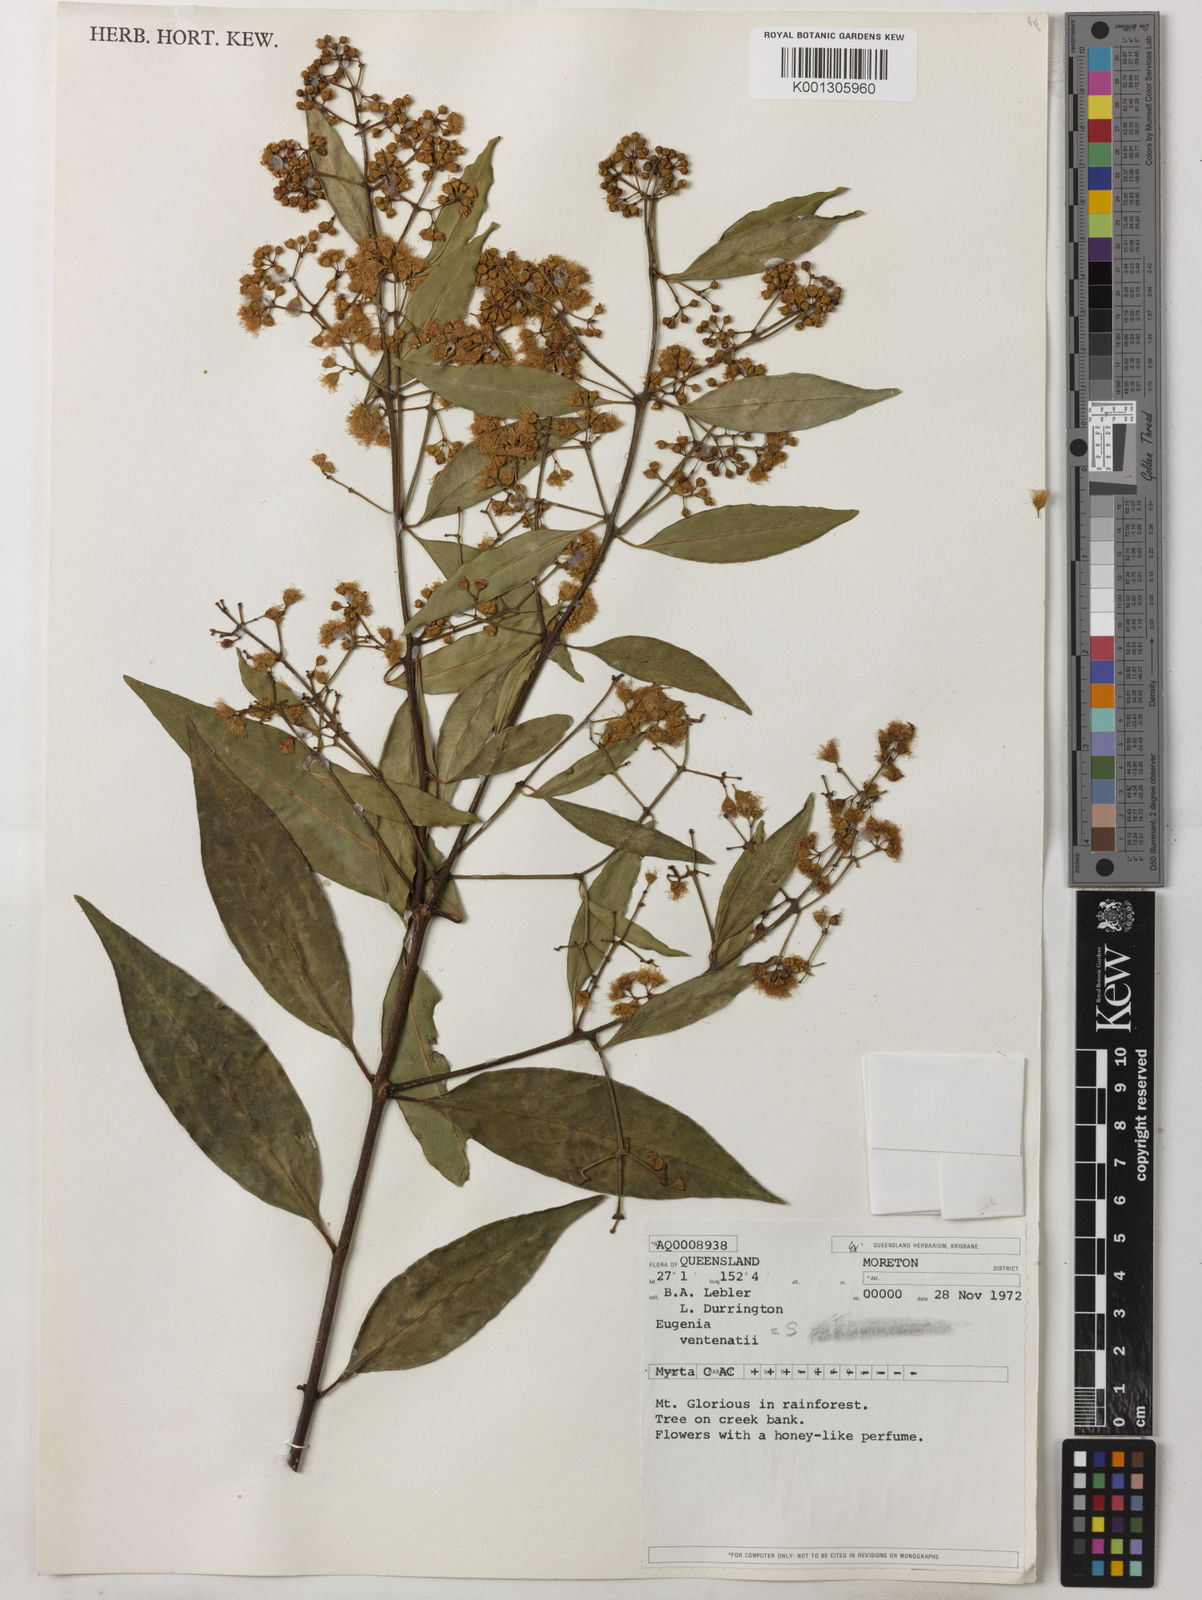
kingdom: Plantae
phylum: Tracheophyta
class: Magnoliopsida
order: Myrtales
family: Myrtaceae
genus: Syzygium
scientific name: Syzygium floribundum
